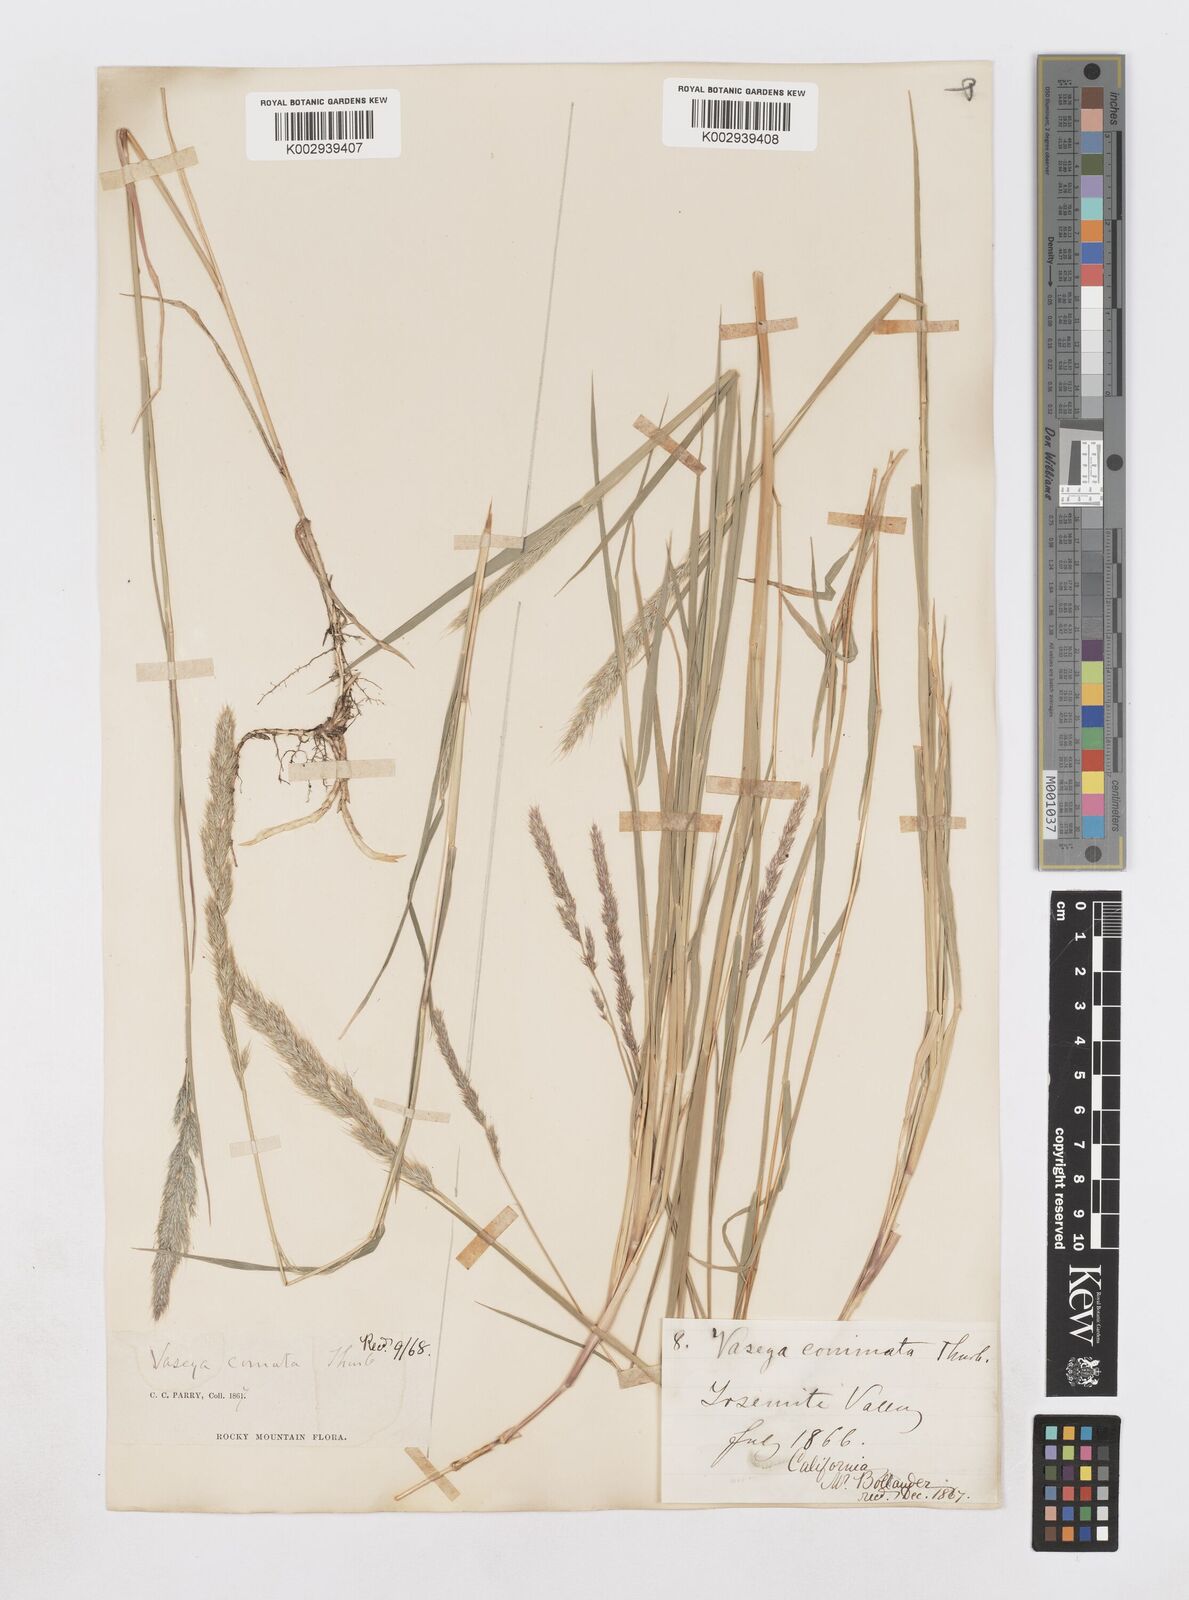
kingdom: Plantae
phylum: Tracheophyta
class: Liliopsida
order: Poales
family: Poaceae
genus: Muhlenbergia
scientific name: Muhlenbergia andina
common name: Foxtail muhly
